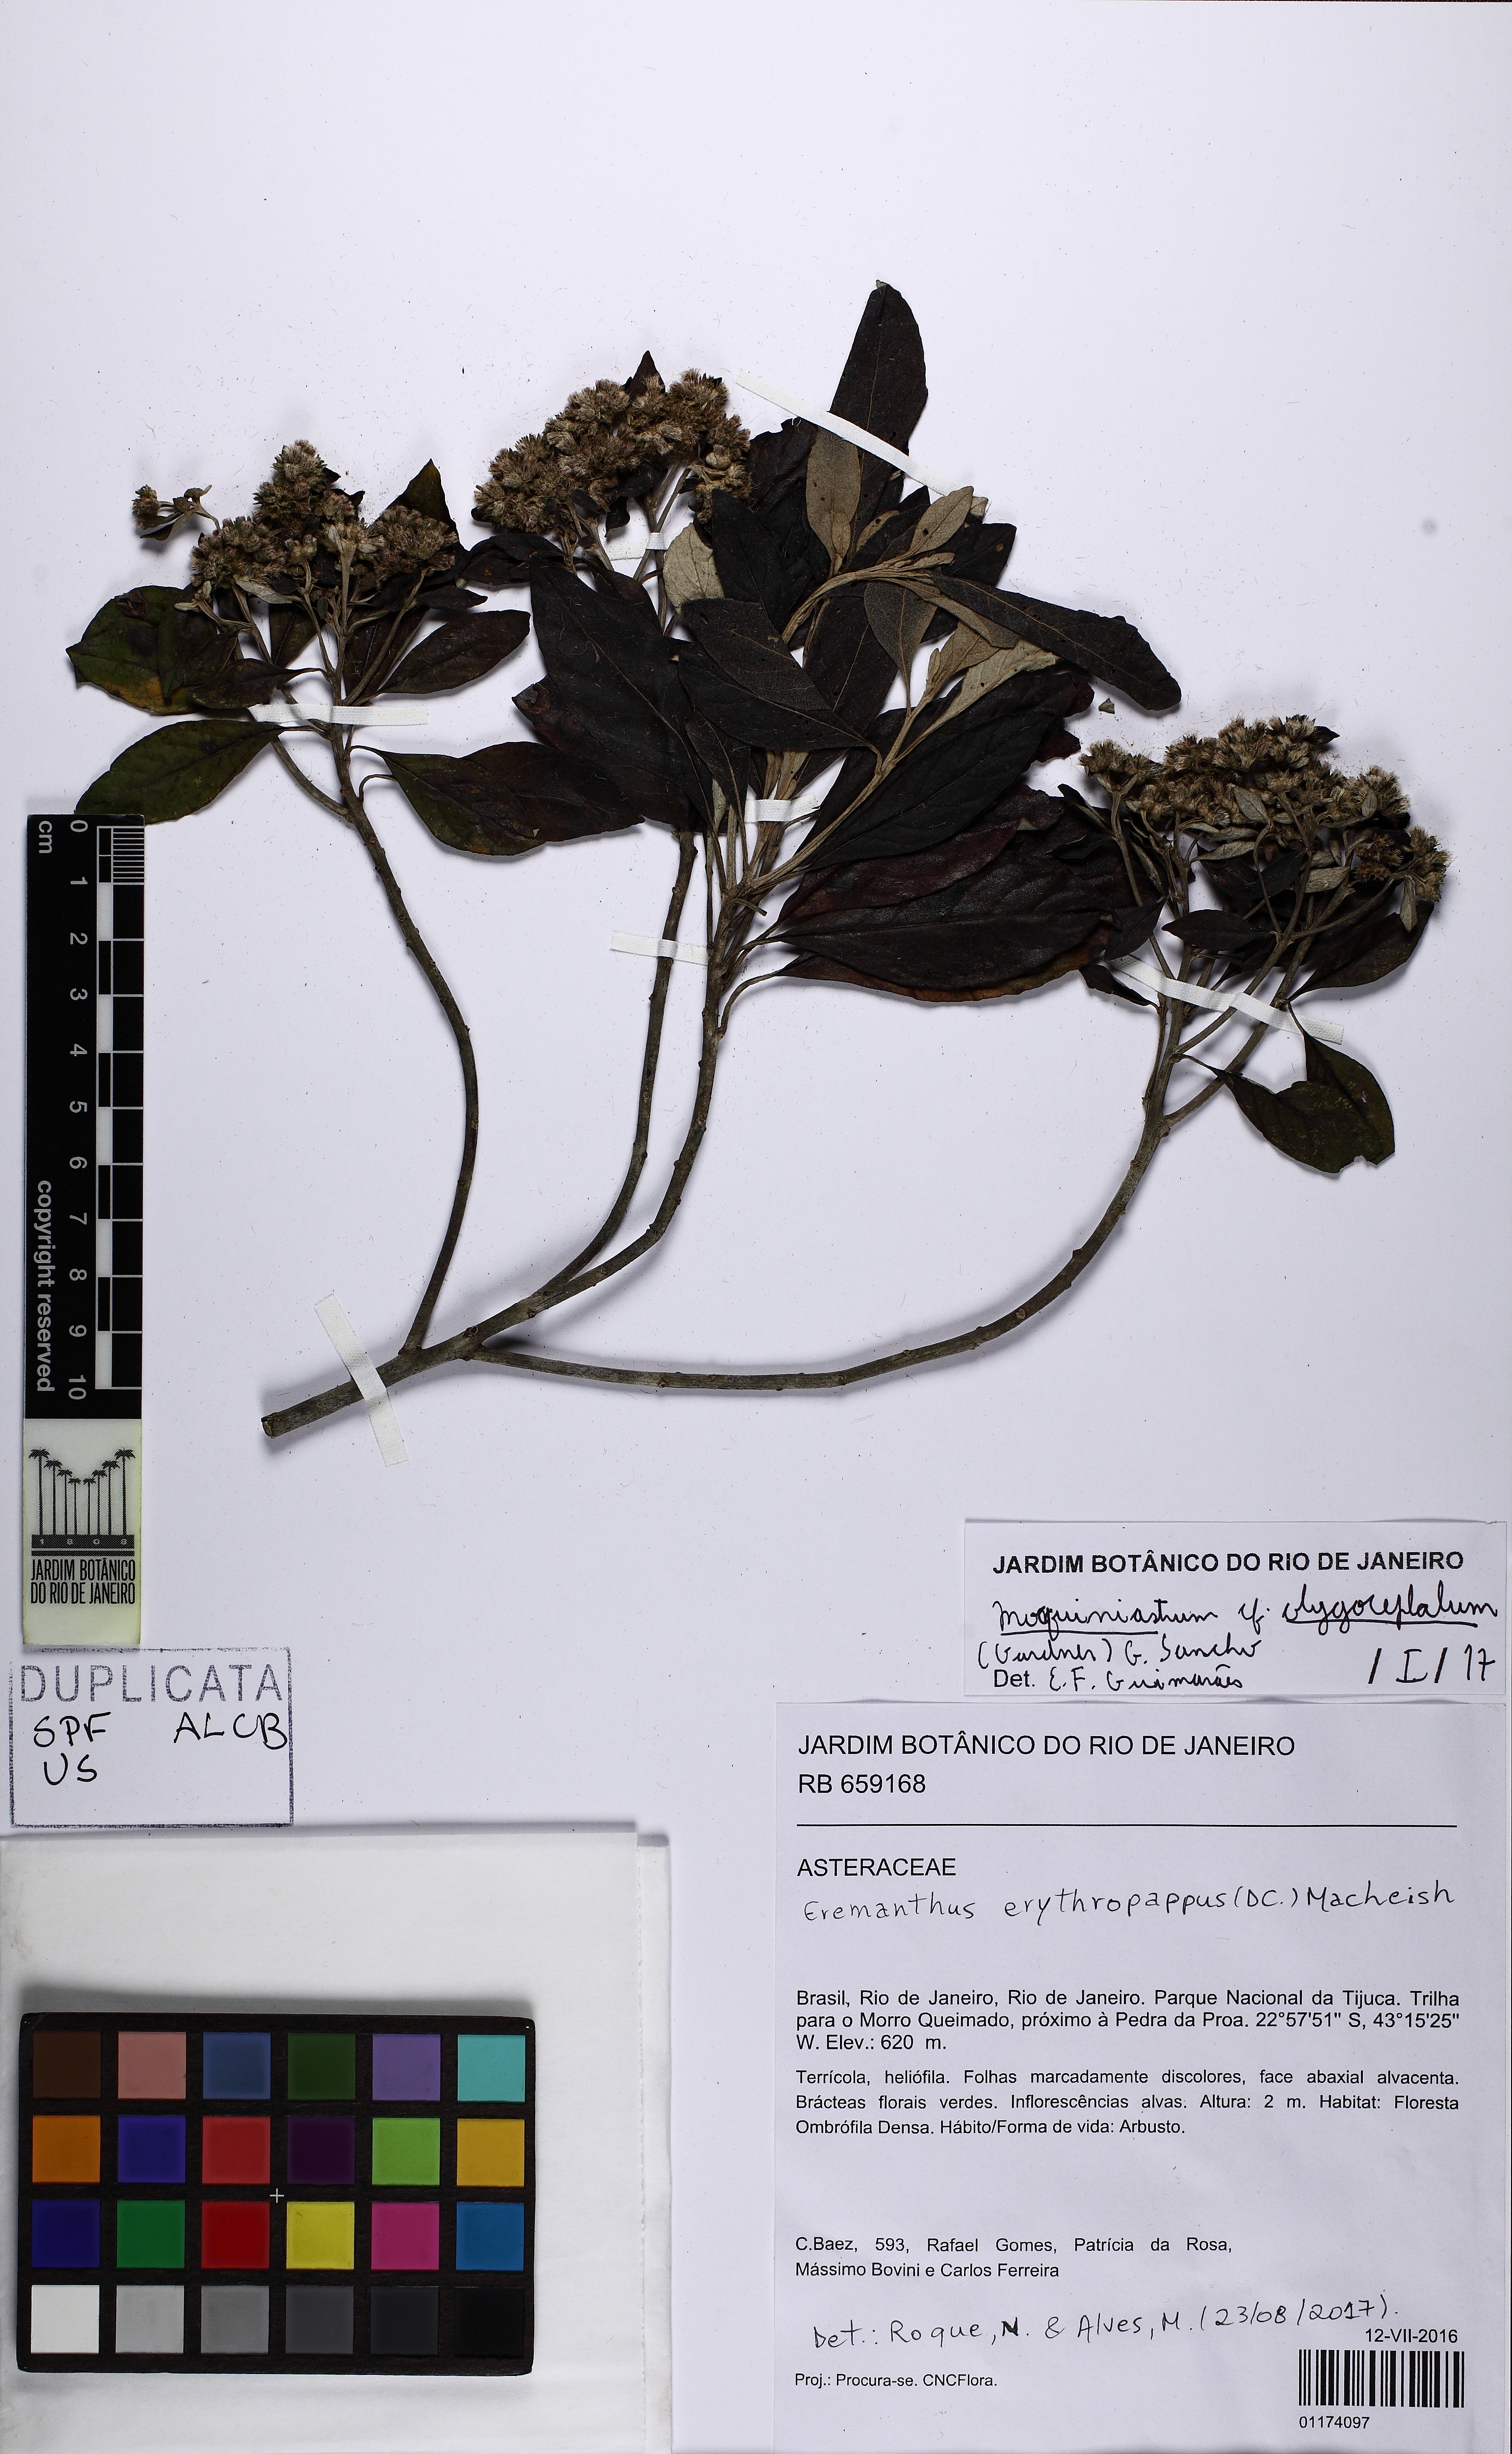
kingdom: Plantae
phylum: Tracheophyta
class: Magnoliopsida
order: Asterales
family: Asteraceae
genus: Eremanthus
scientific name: Eremanthus erythropappus
